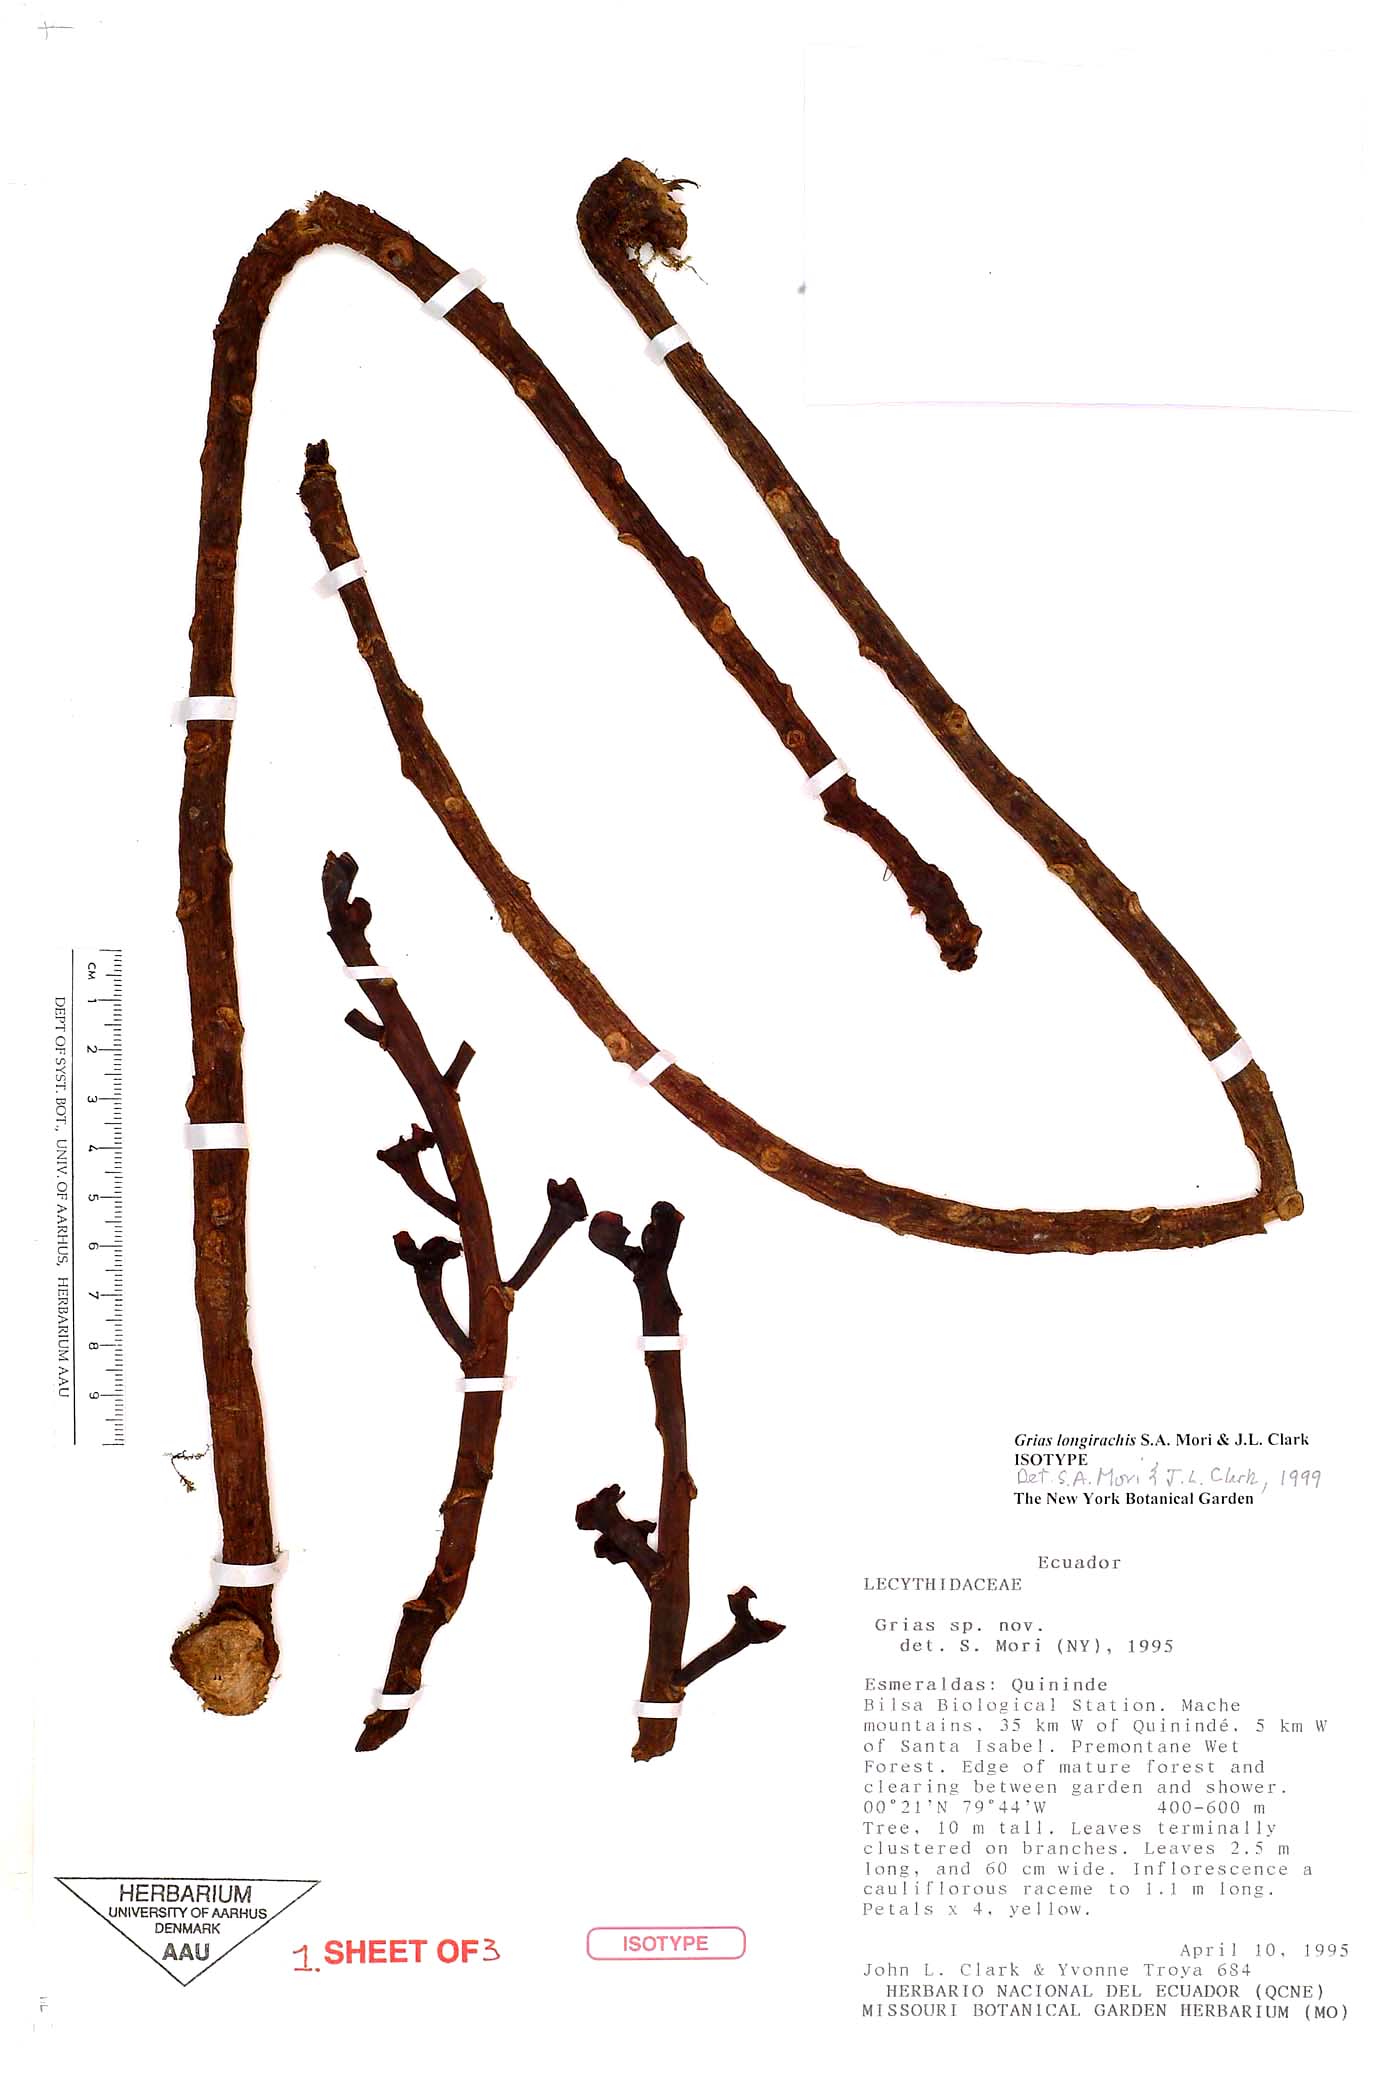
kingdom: Plantae
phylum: Tracheophyta
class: Magnoliopsida
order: Ericales
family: Lecythidaceae
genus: Grias
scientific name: Grias longirachis
